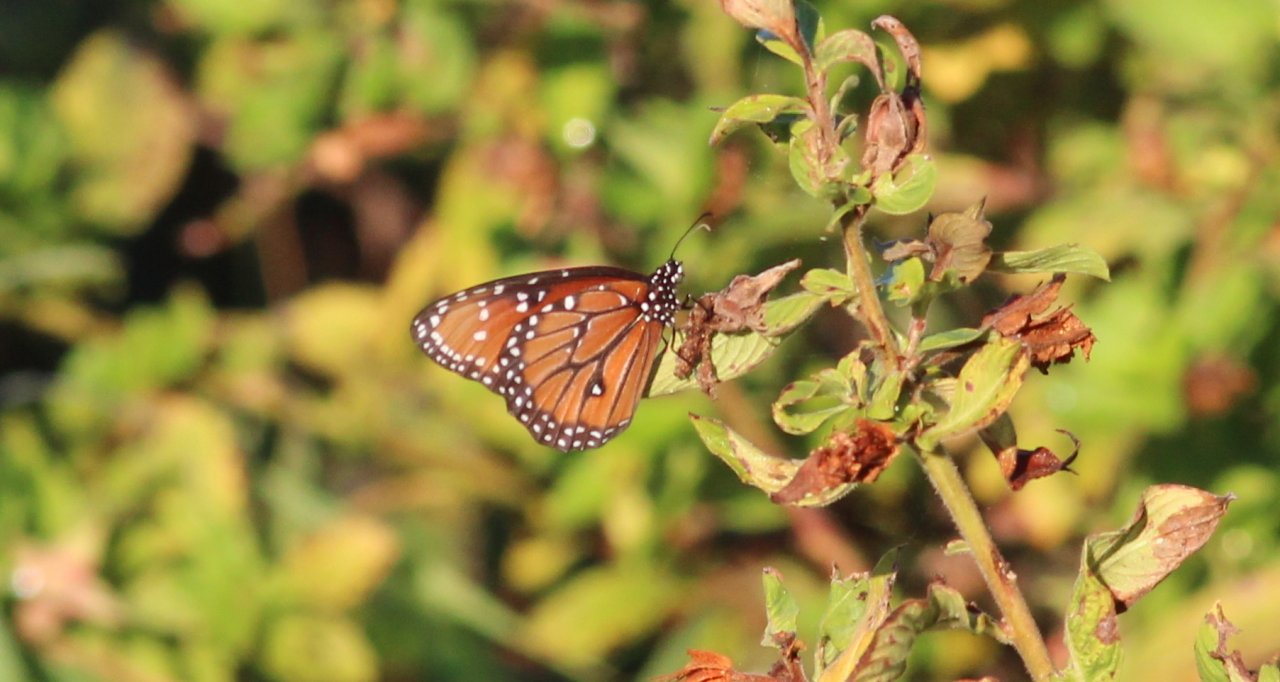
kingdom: Animalia
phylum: Arthropoda
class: Insecta
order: Lepidoptera
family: Nymphalidae
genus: Danaus
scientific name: Danaus gilippus
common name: Queen
